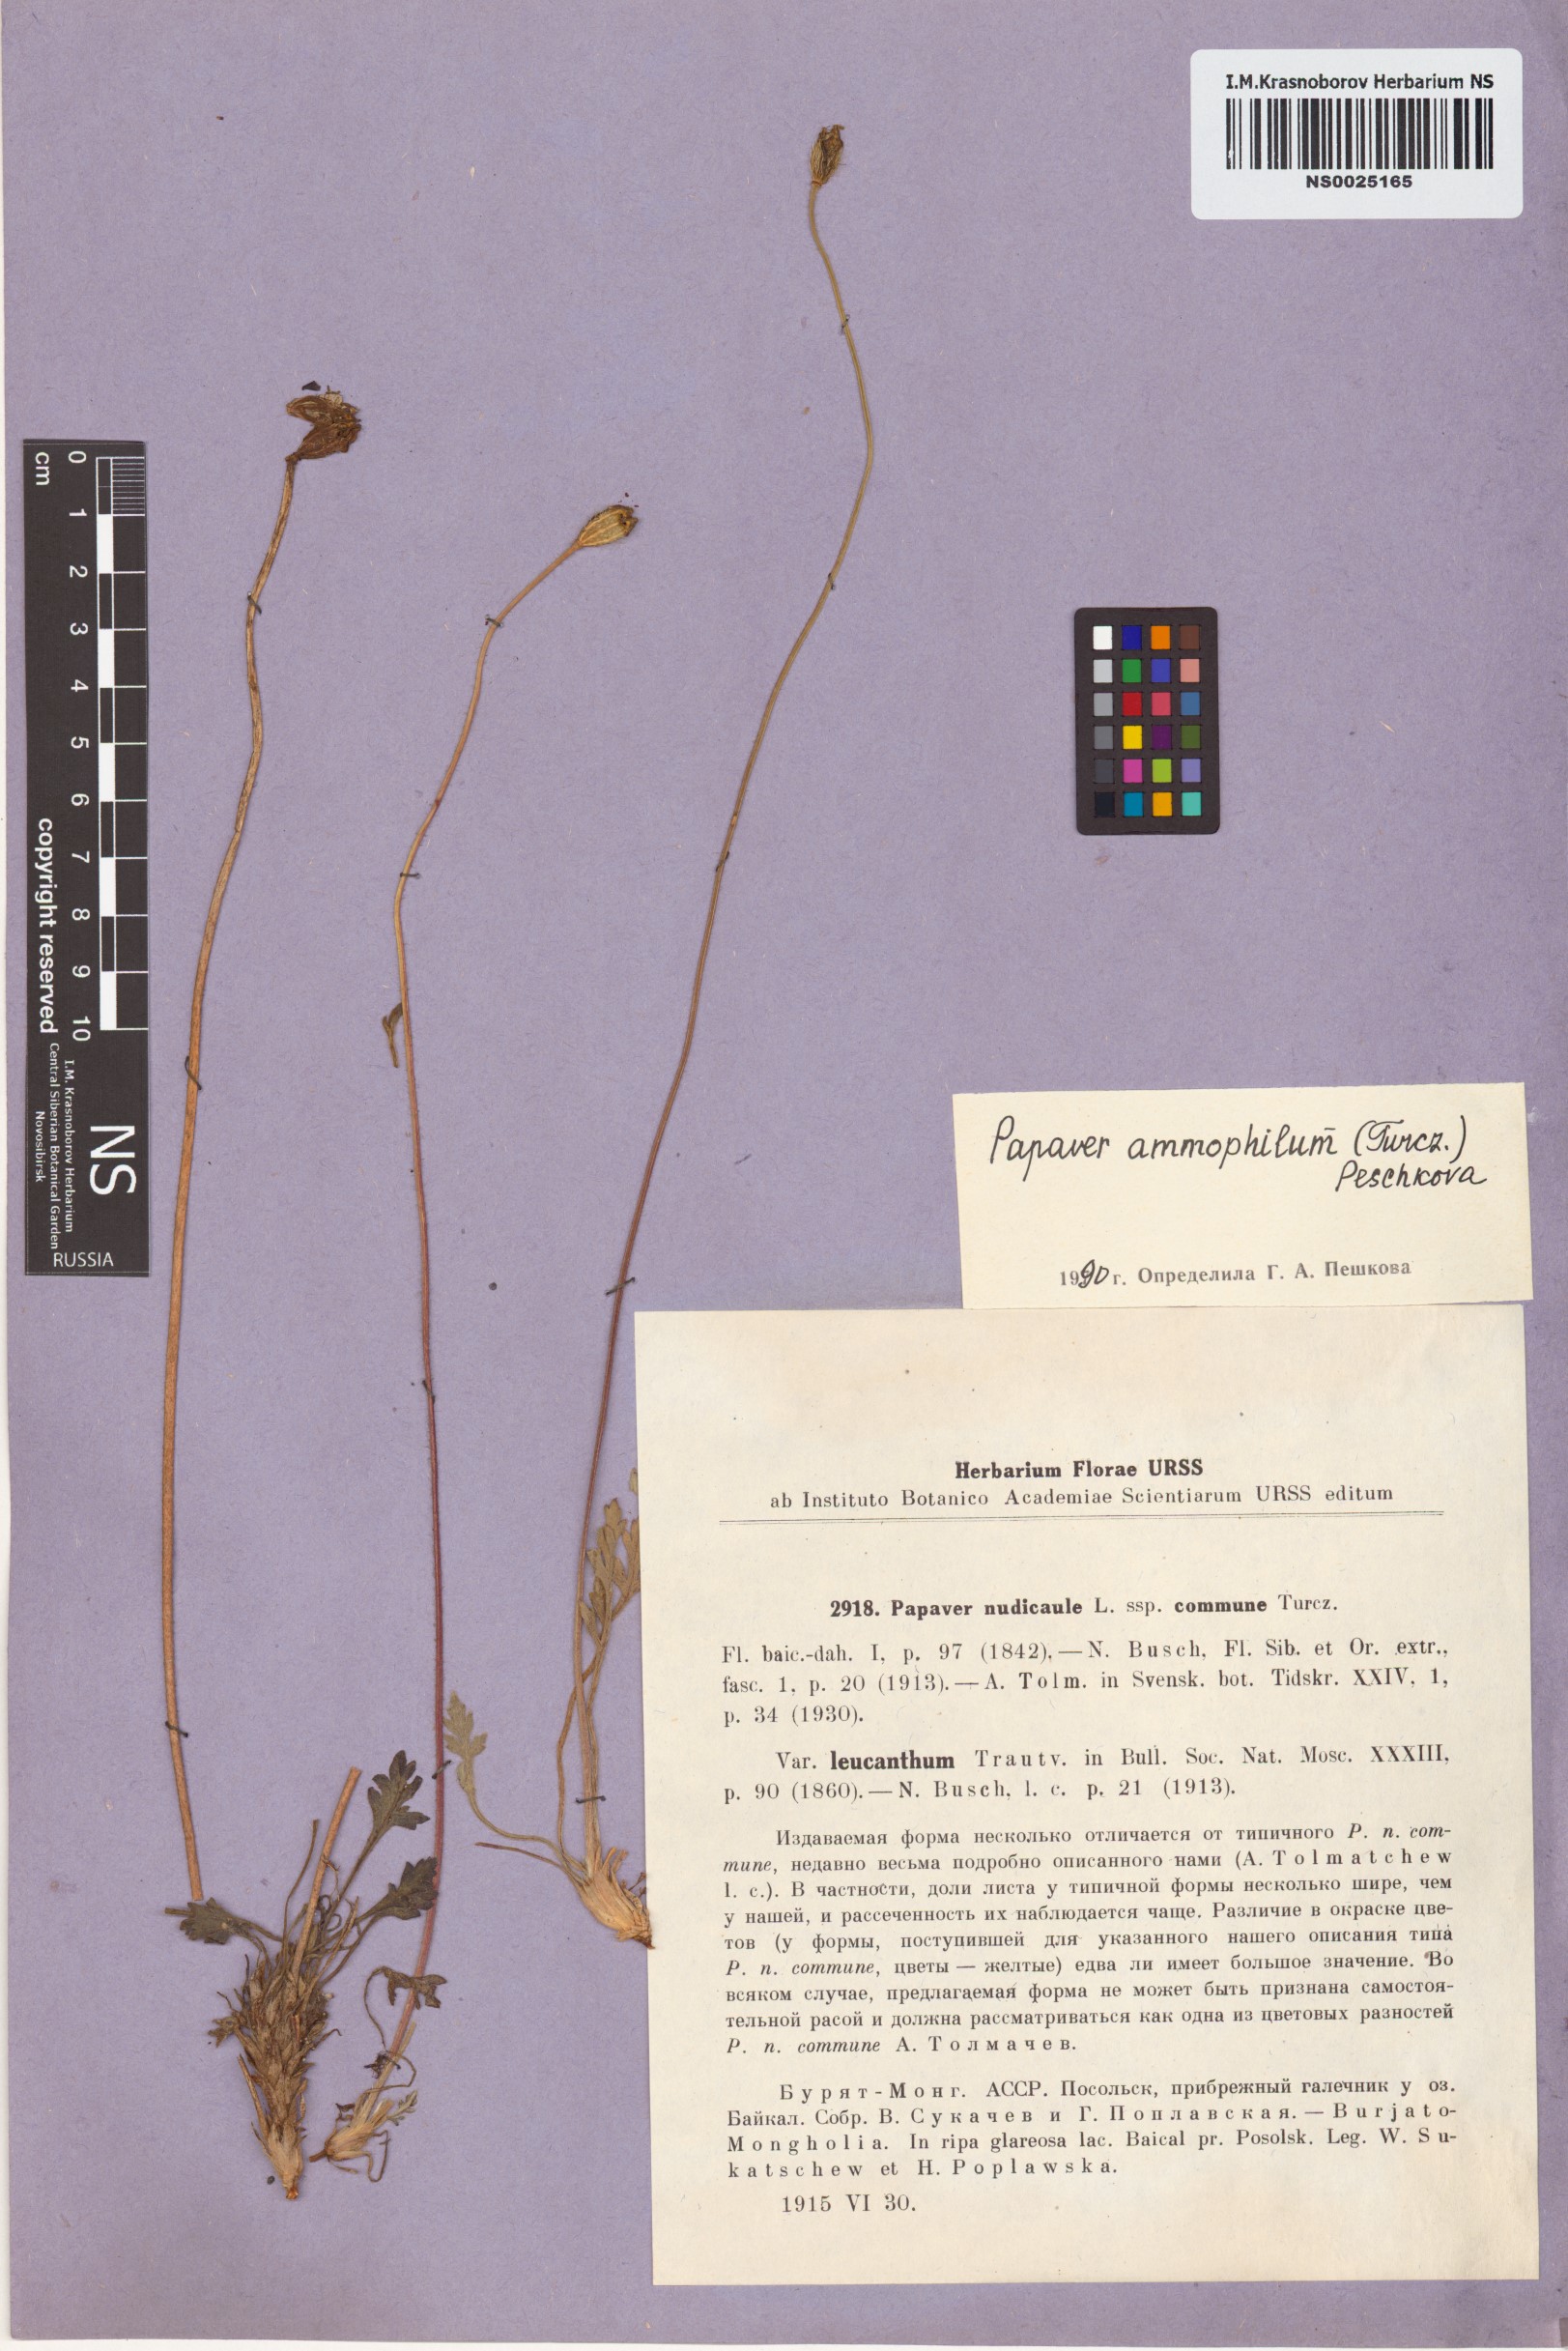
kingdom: Plantae
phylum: Tracheophyta
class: Magnoliopsida
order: Ranunculales
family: Papaveraceae
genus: Papaver
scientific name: Papaver nudicaule
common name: Arctic poppy
